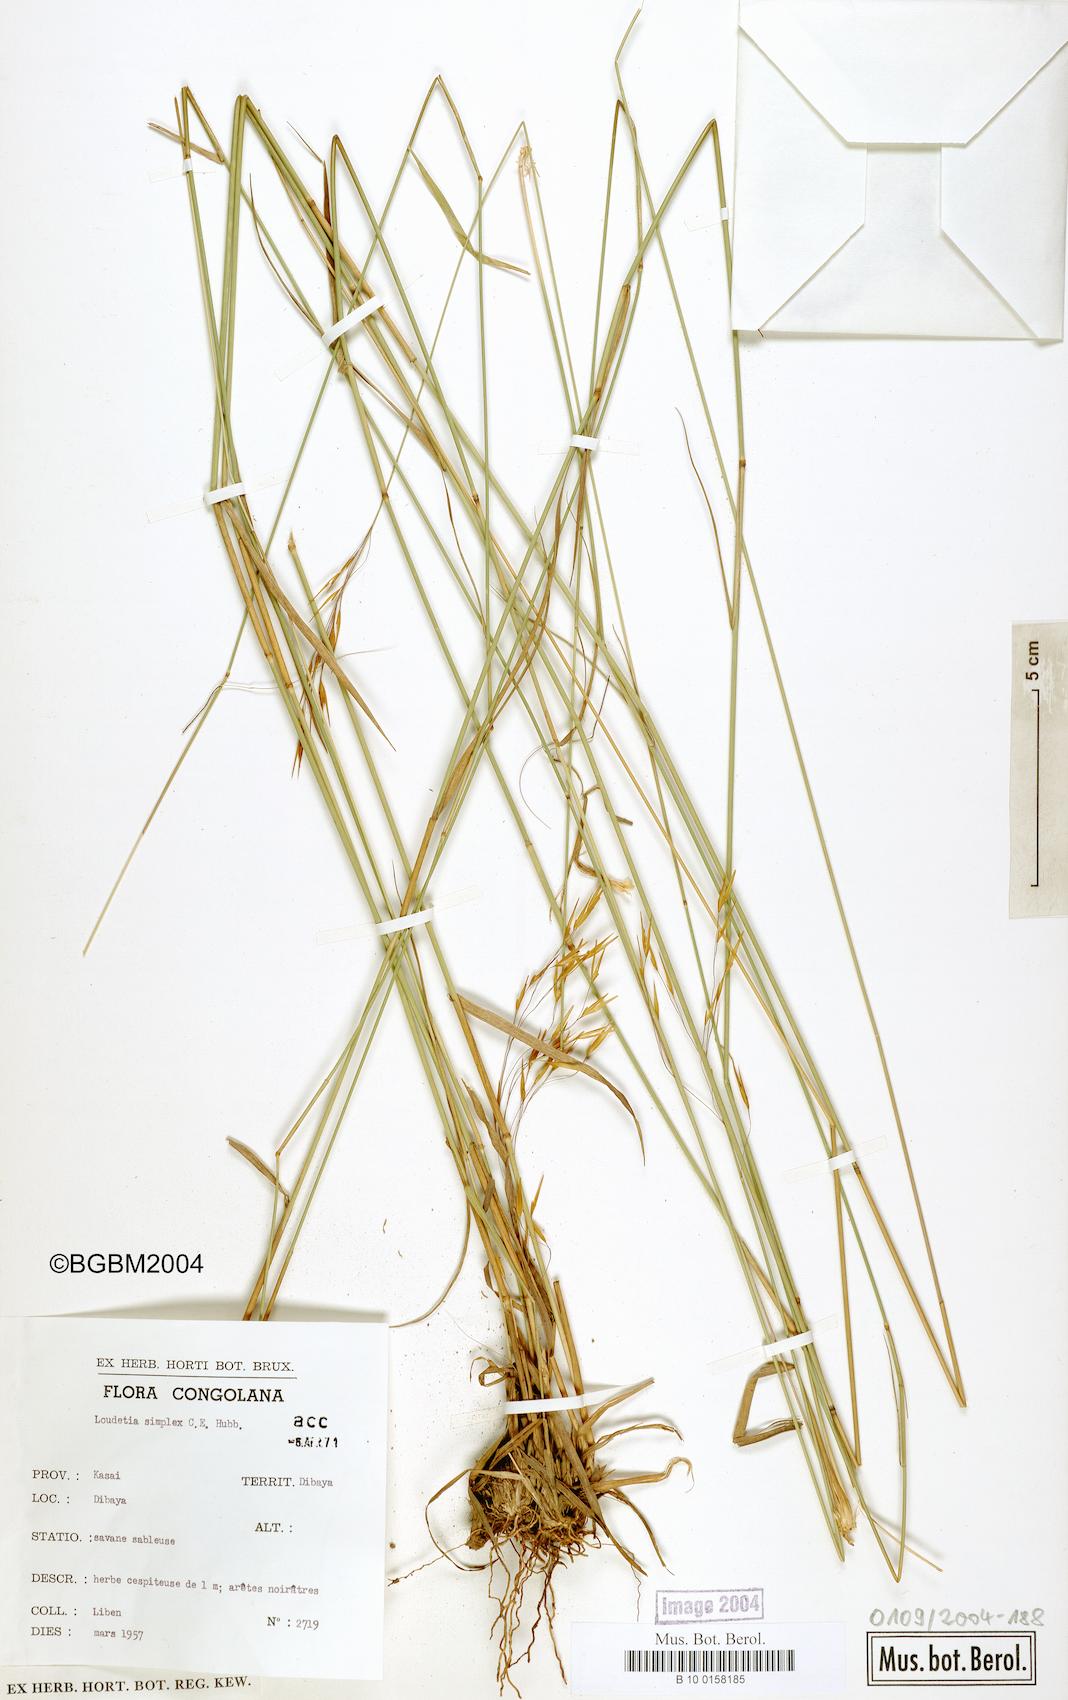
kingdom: Plantae
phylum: Tracheophyta
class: Liliopsida
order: Poales
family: Poaceae
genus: Loudetia
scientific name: Loudetia simplex
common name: Common russet grass
